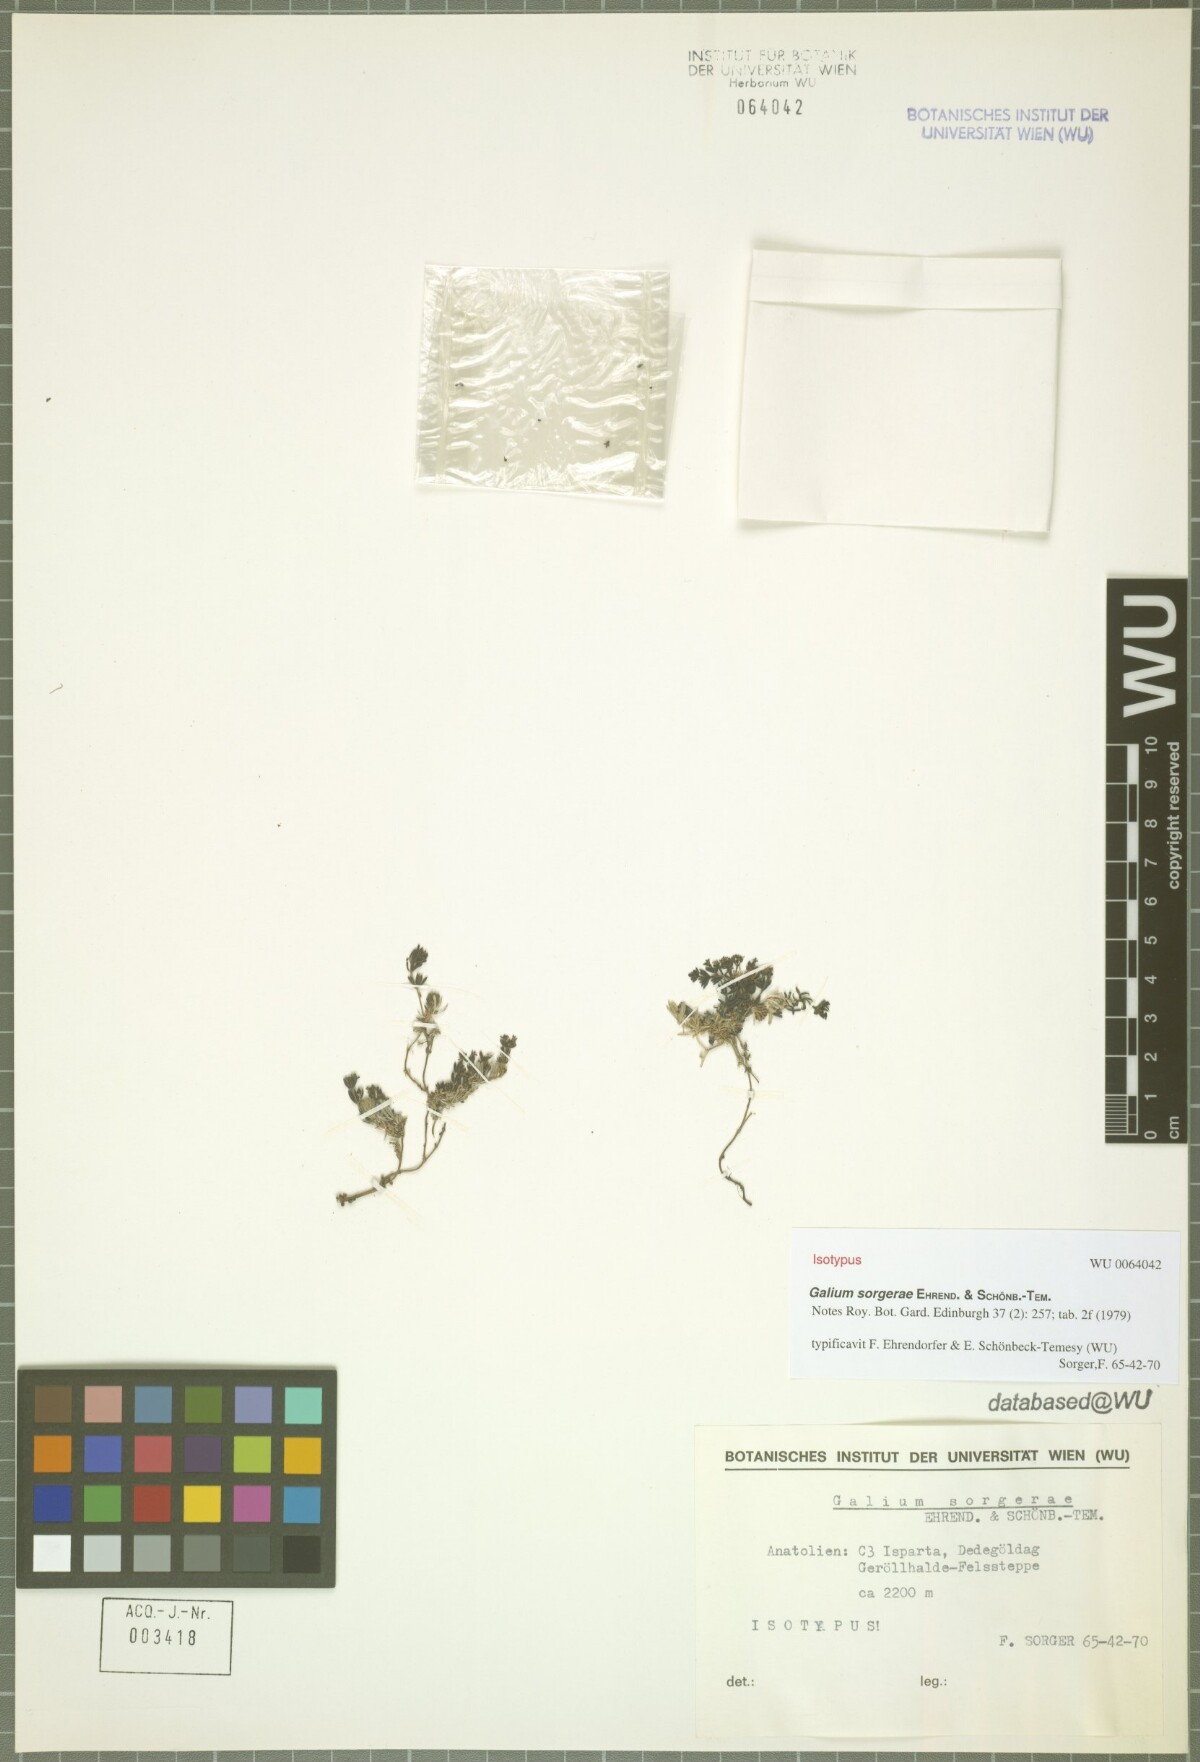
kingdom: Plantae
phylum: Tracheophyta
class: Magnoliopsida
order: Gentianales
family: Rubiaceae
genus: Galium
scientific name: Galium sorgerae
